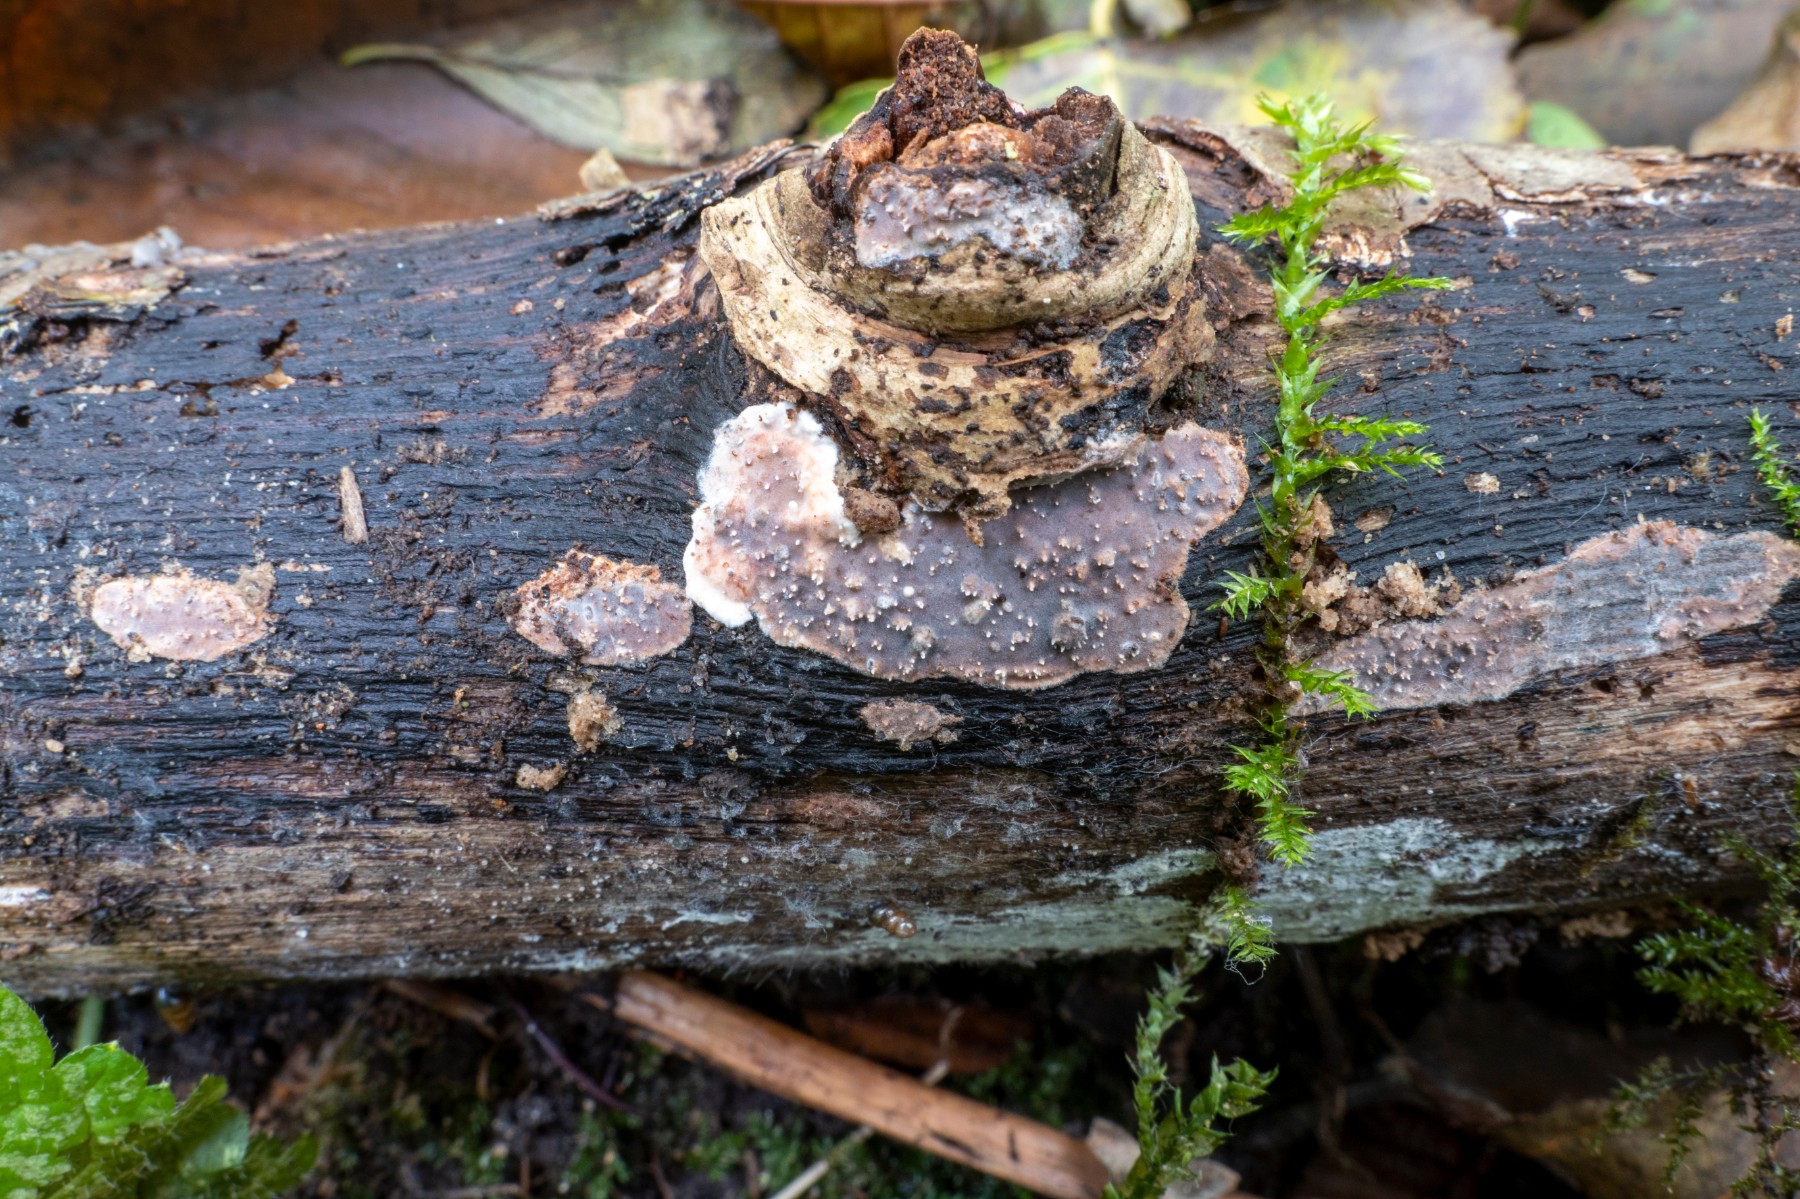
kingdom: Fungi
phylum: Basidiomycota
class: Agaricomycetes
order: Auriculariales
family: Auriculariaceae
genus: Heteroradulum
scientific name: Heteroradulum deglubens
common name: bævreskorpe
